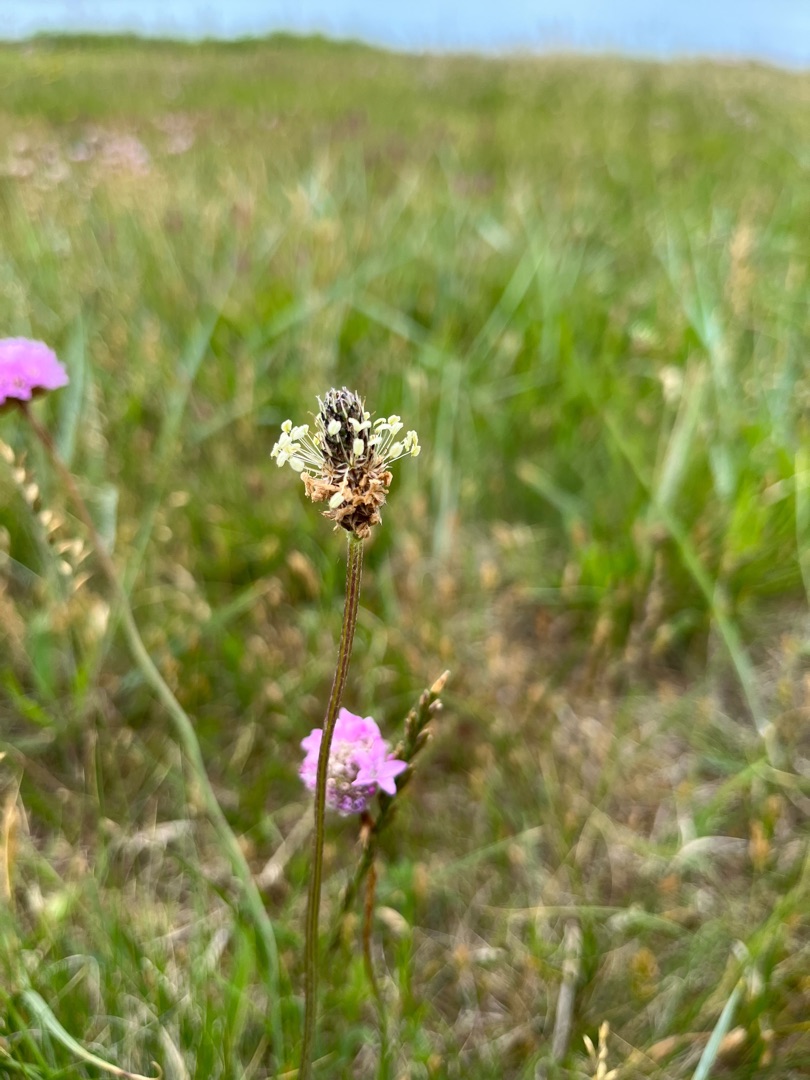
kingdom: Plantae
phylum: Tracheophyta
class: Magnoliopsida
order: Lamiales
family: Plantaginaceae
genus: Plantago
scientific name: Plantago lanceolata
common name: Lancet-vejbred
